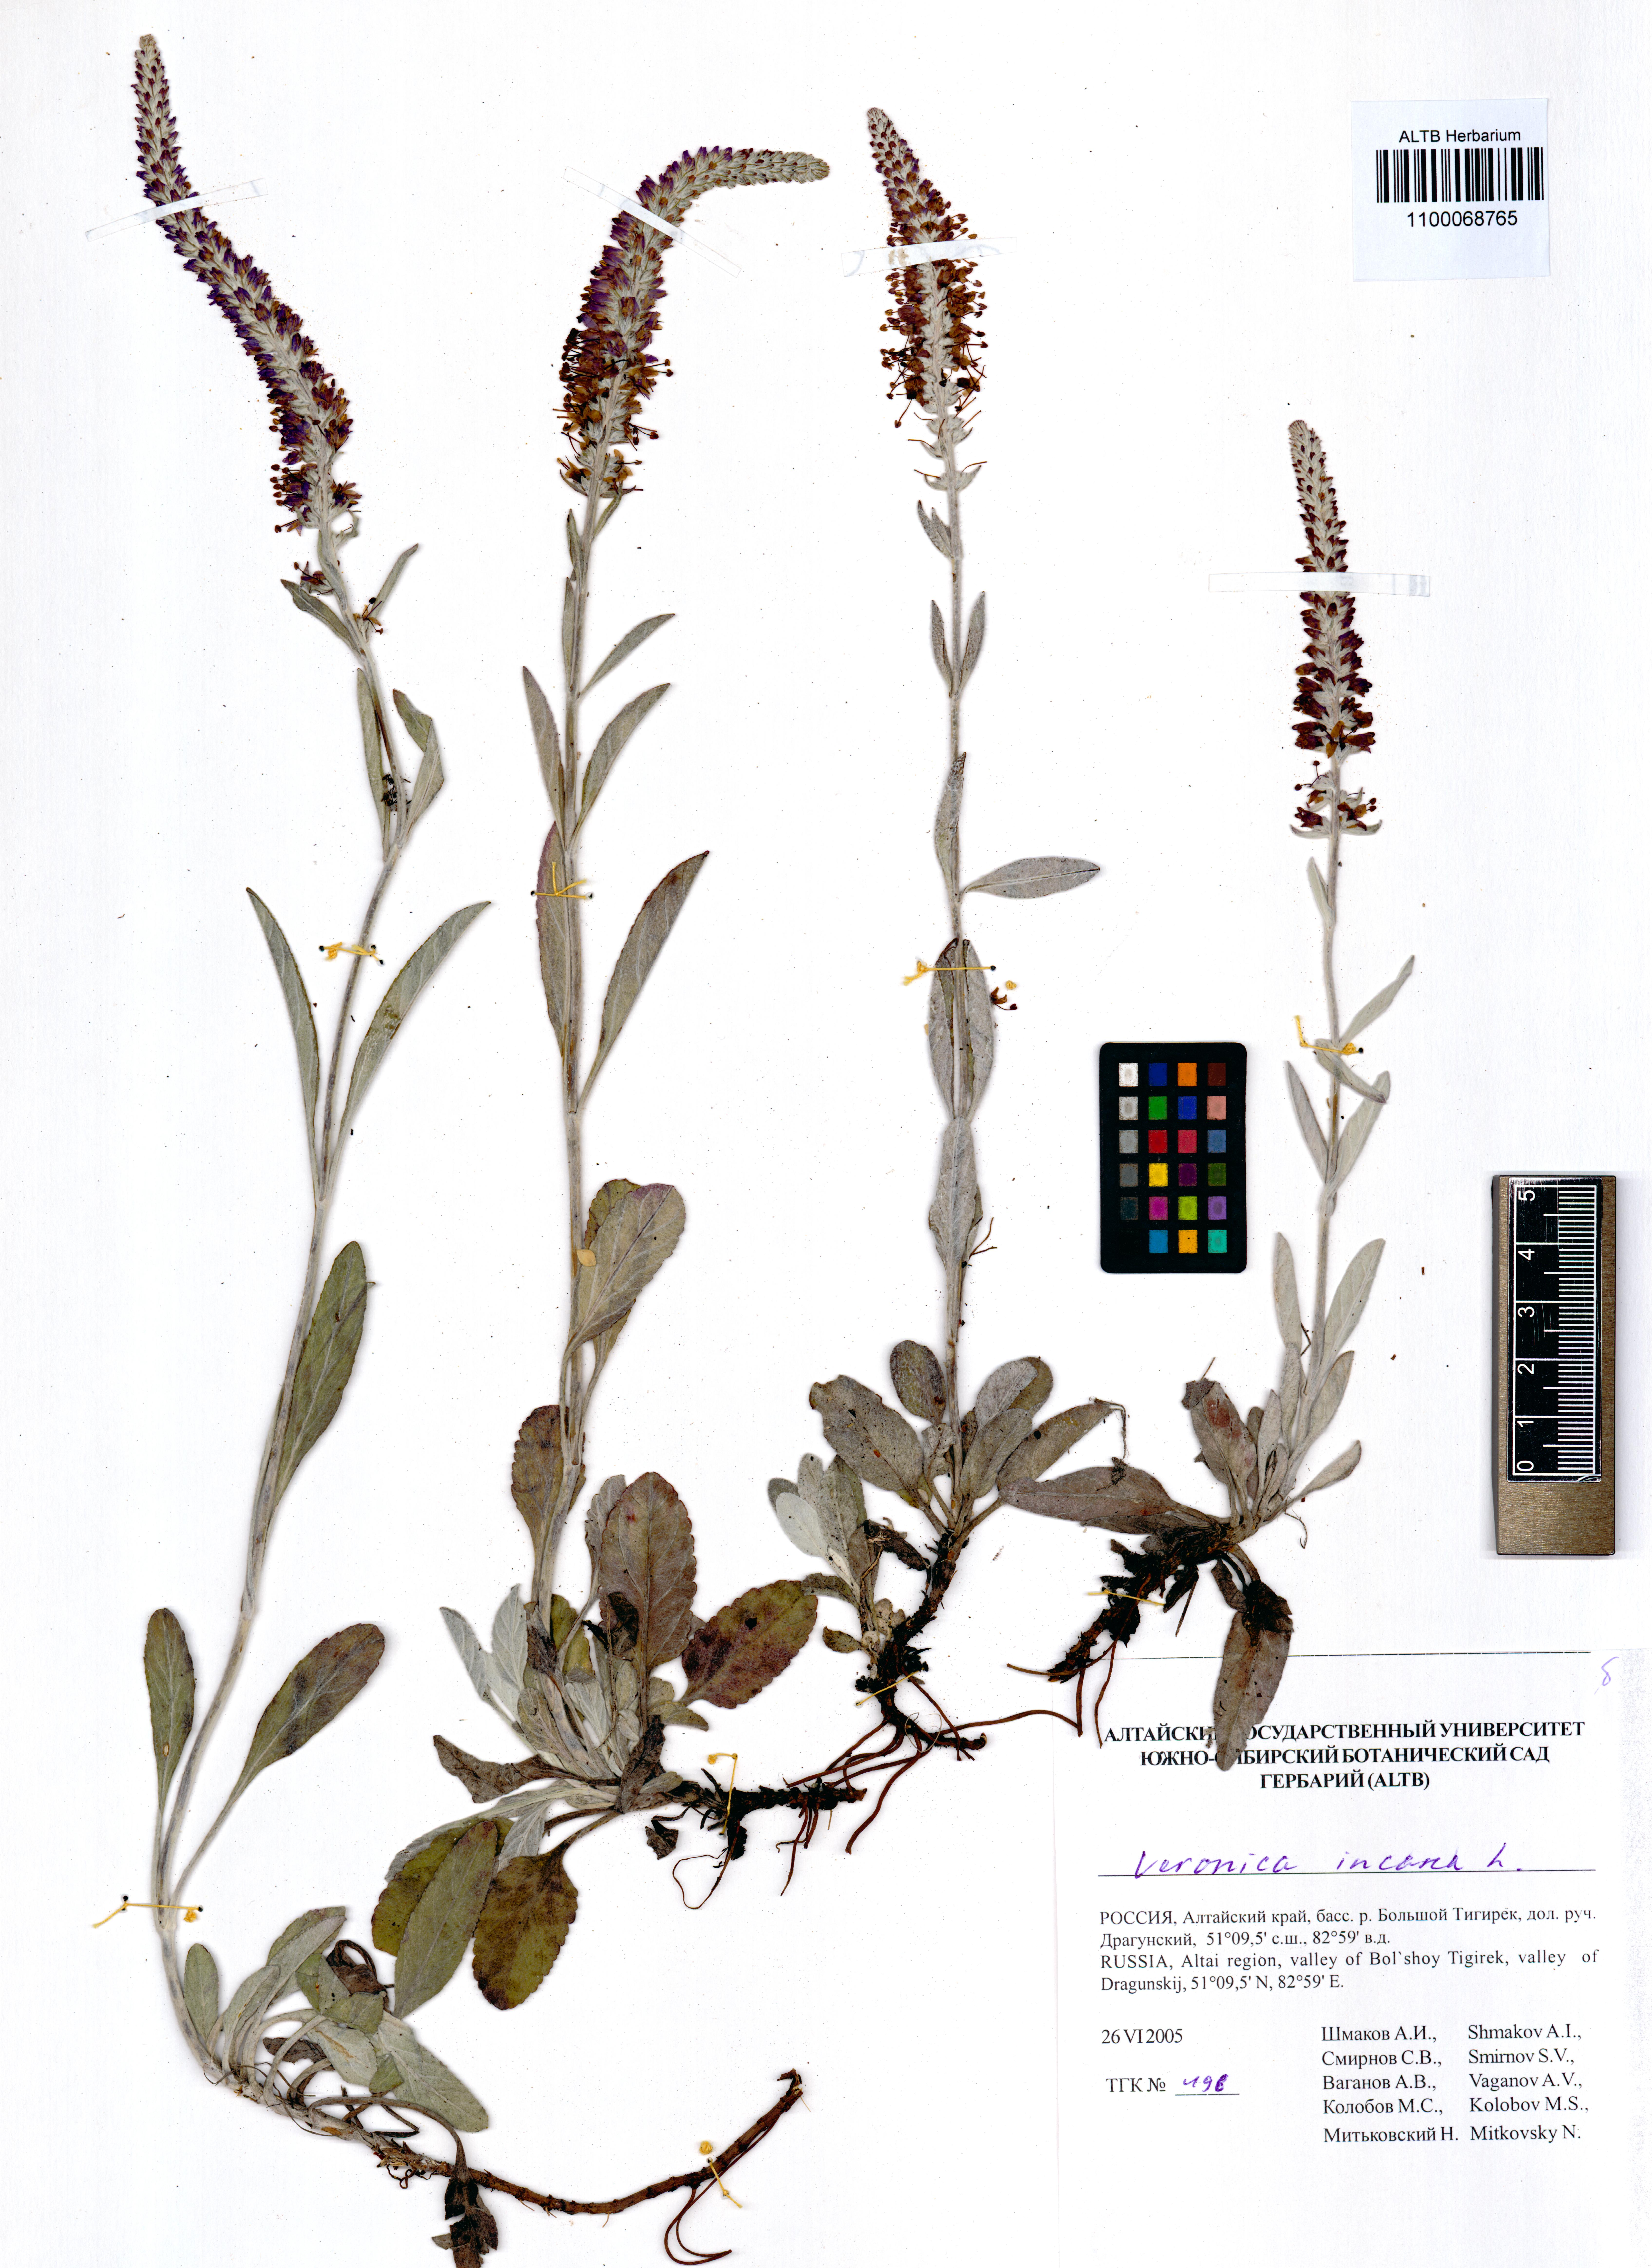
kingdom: Plantae
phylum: Tracheophyta
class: Magnoliopsida
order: Lamiales
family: Plantaginaceae
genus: Veronica
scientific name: Veronica incana
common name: Silver speedwell
